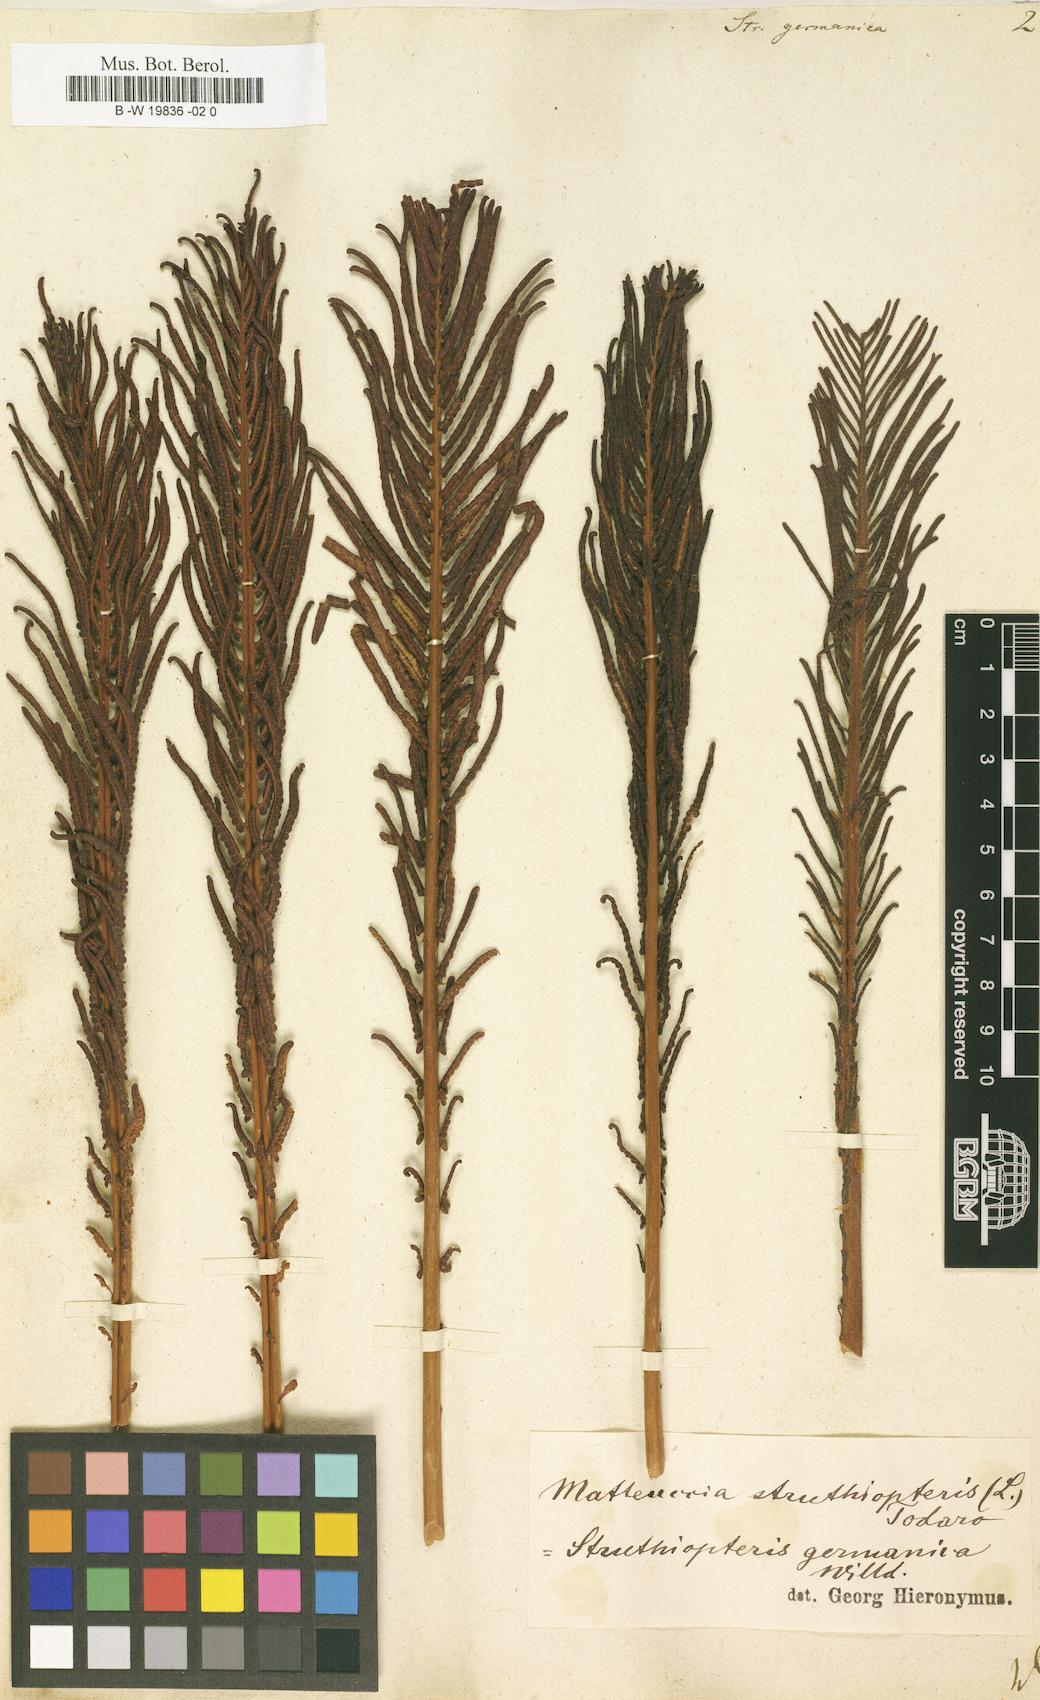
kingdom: Plantae
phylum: Tracheophyta
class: Polypodiopsida
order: Polypodiales
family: Onocleaceae
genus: Matteuccia
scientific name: Matteuccia struthiopteris
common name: Ostrich fern
